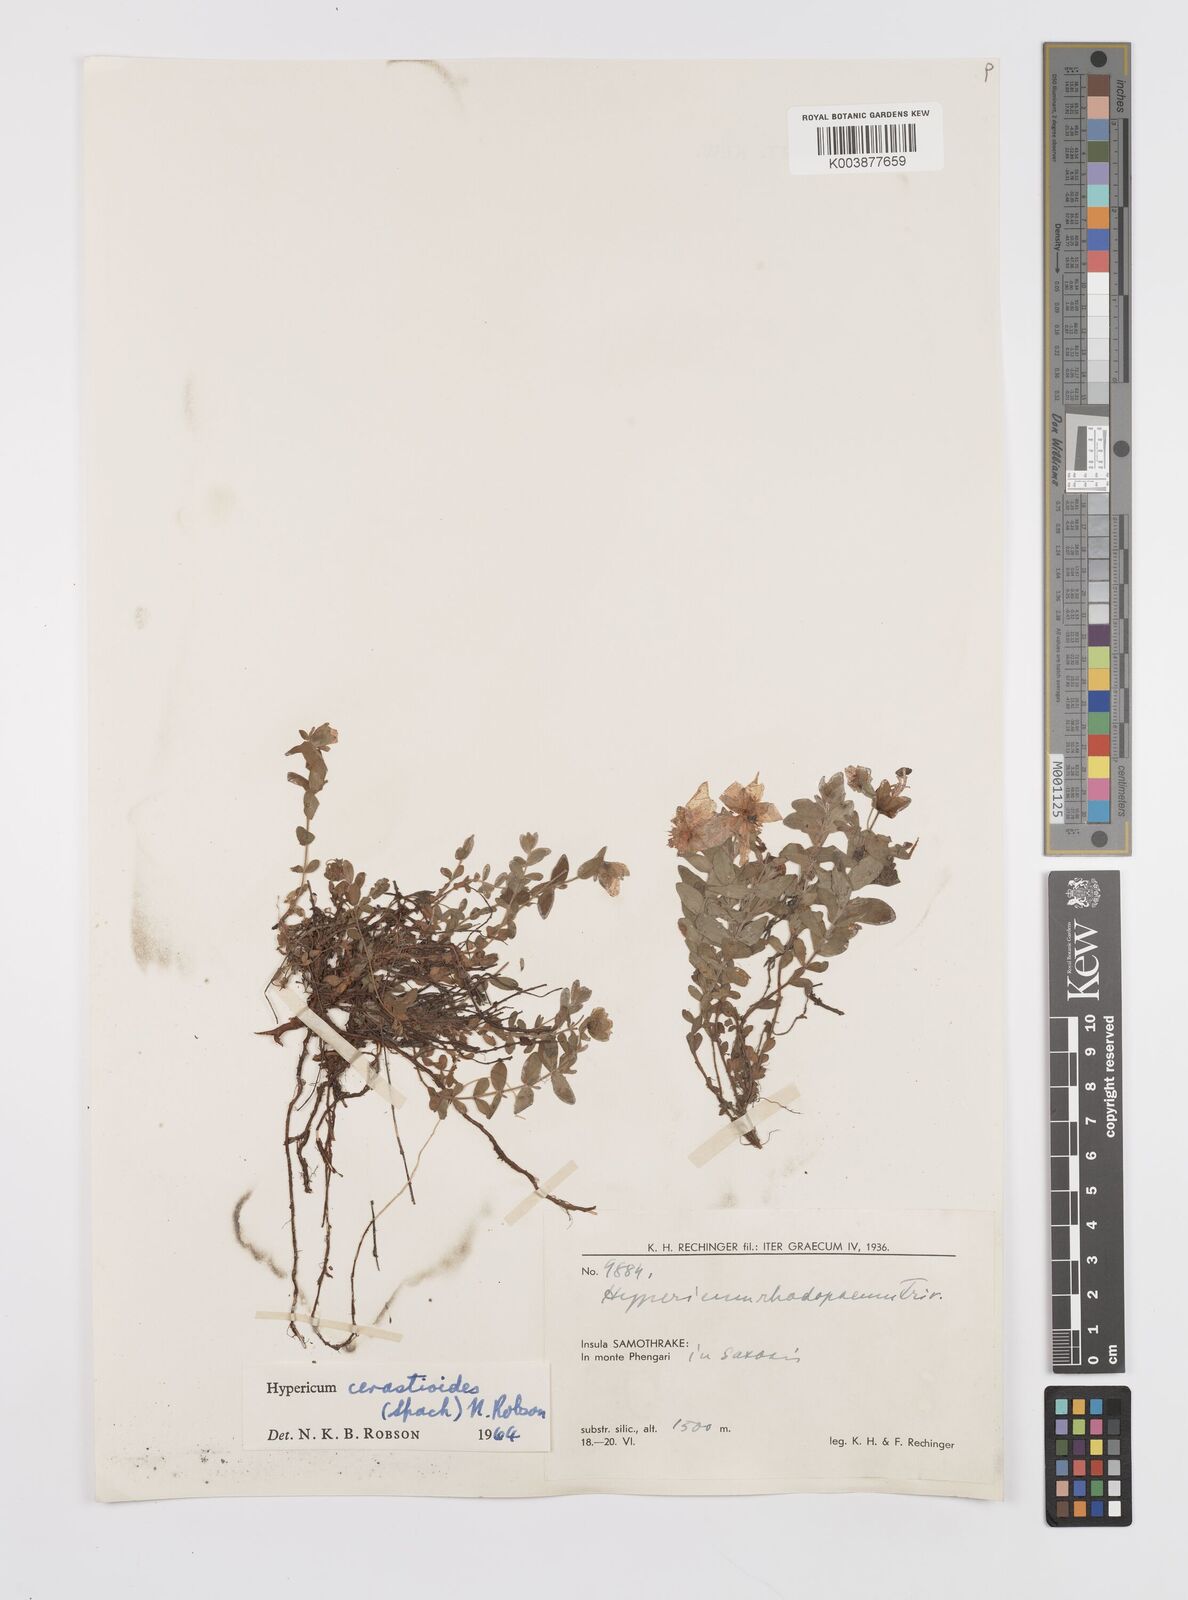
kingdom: Plantae
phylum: Tracheophyta
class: Magnoliopsida
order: Malpighiales
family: Hypericaceae
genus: Hypericum
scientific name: Hypericum cerastoides
